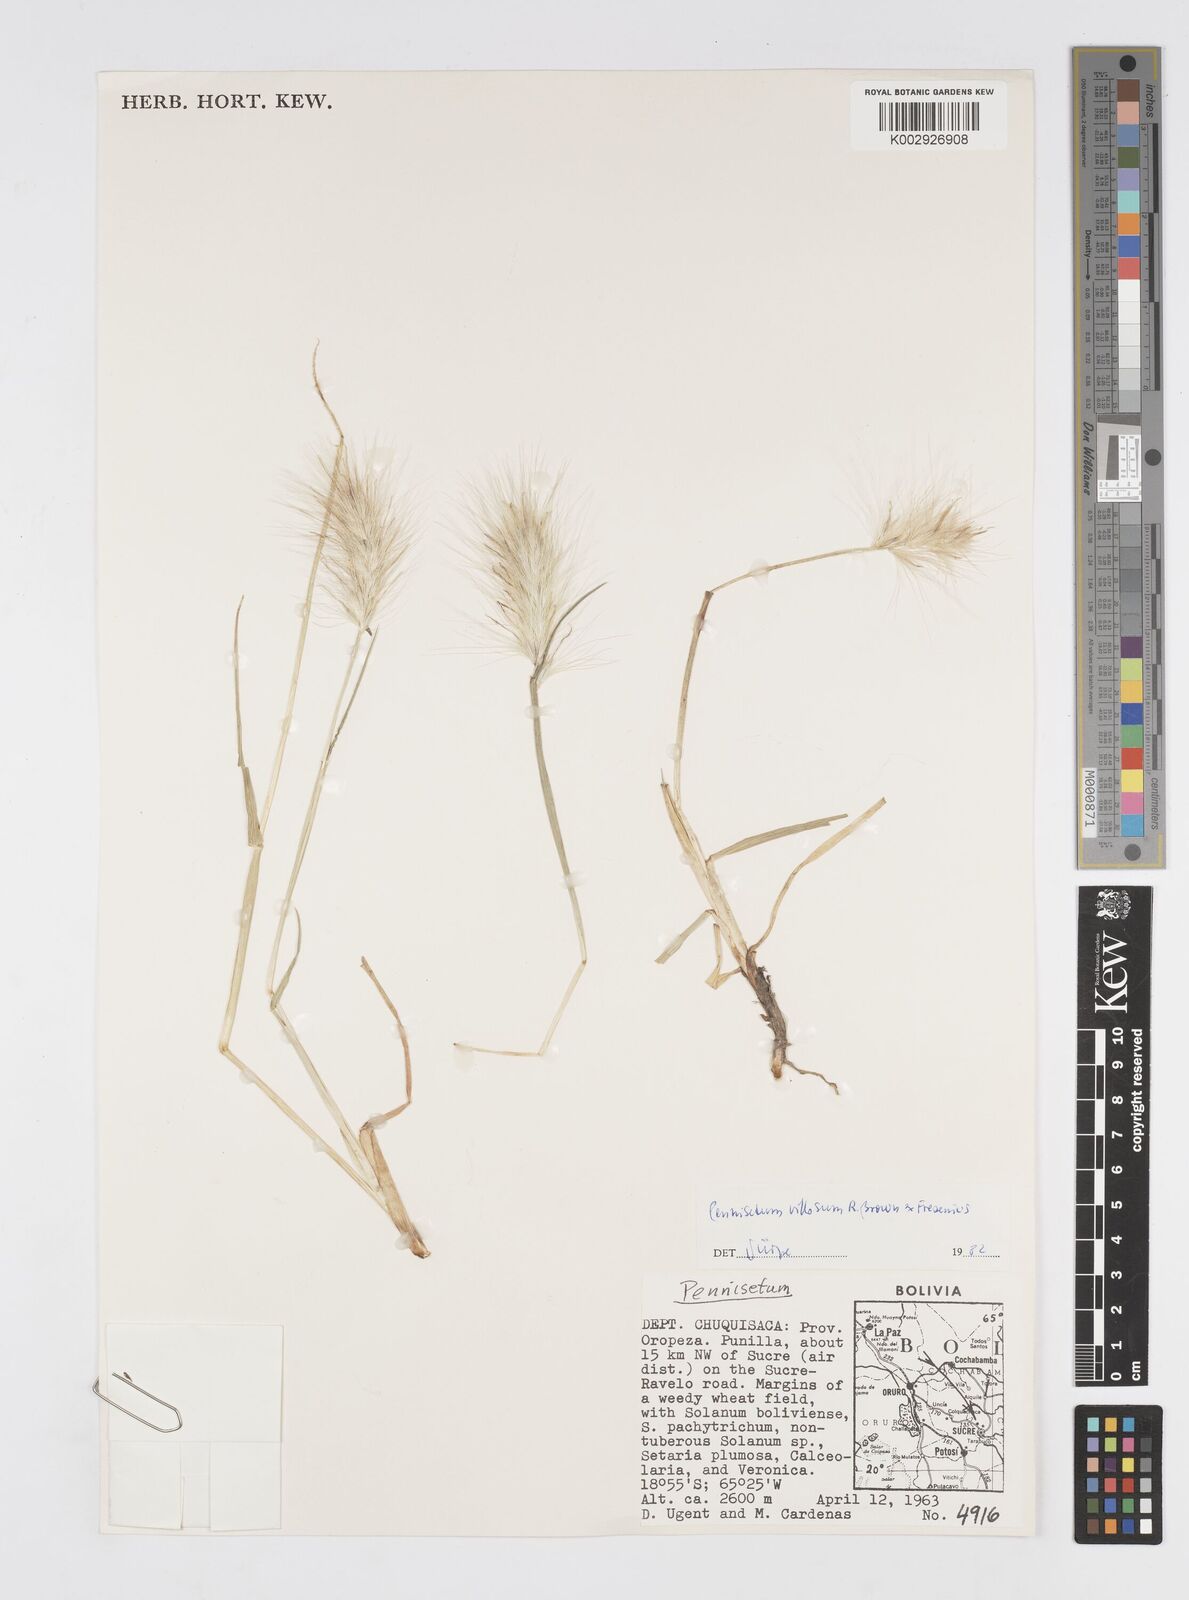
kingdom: Plantae
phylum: Tracheophyta
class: Liliopsida
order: Poales
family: Poaceae
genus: Cenchrus
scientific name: Cenchrus longisetus
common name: Feathertop
